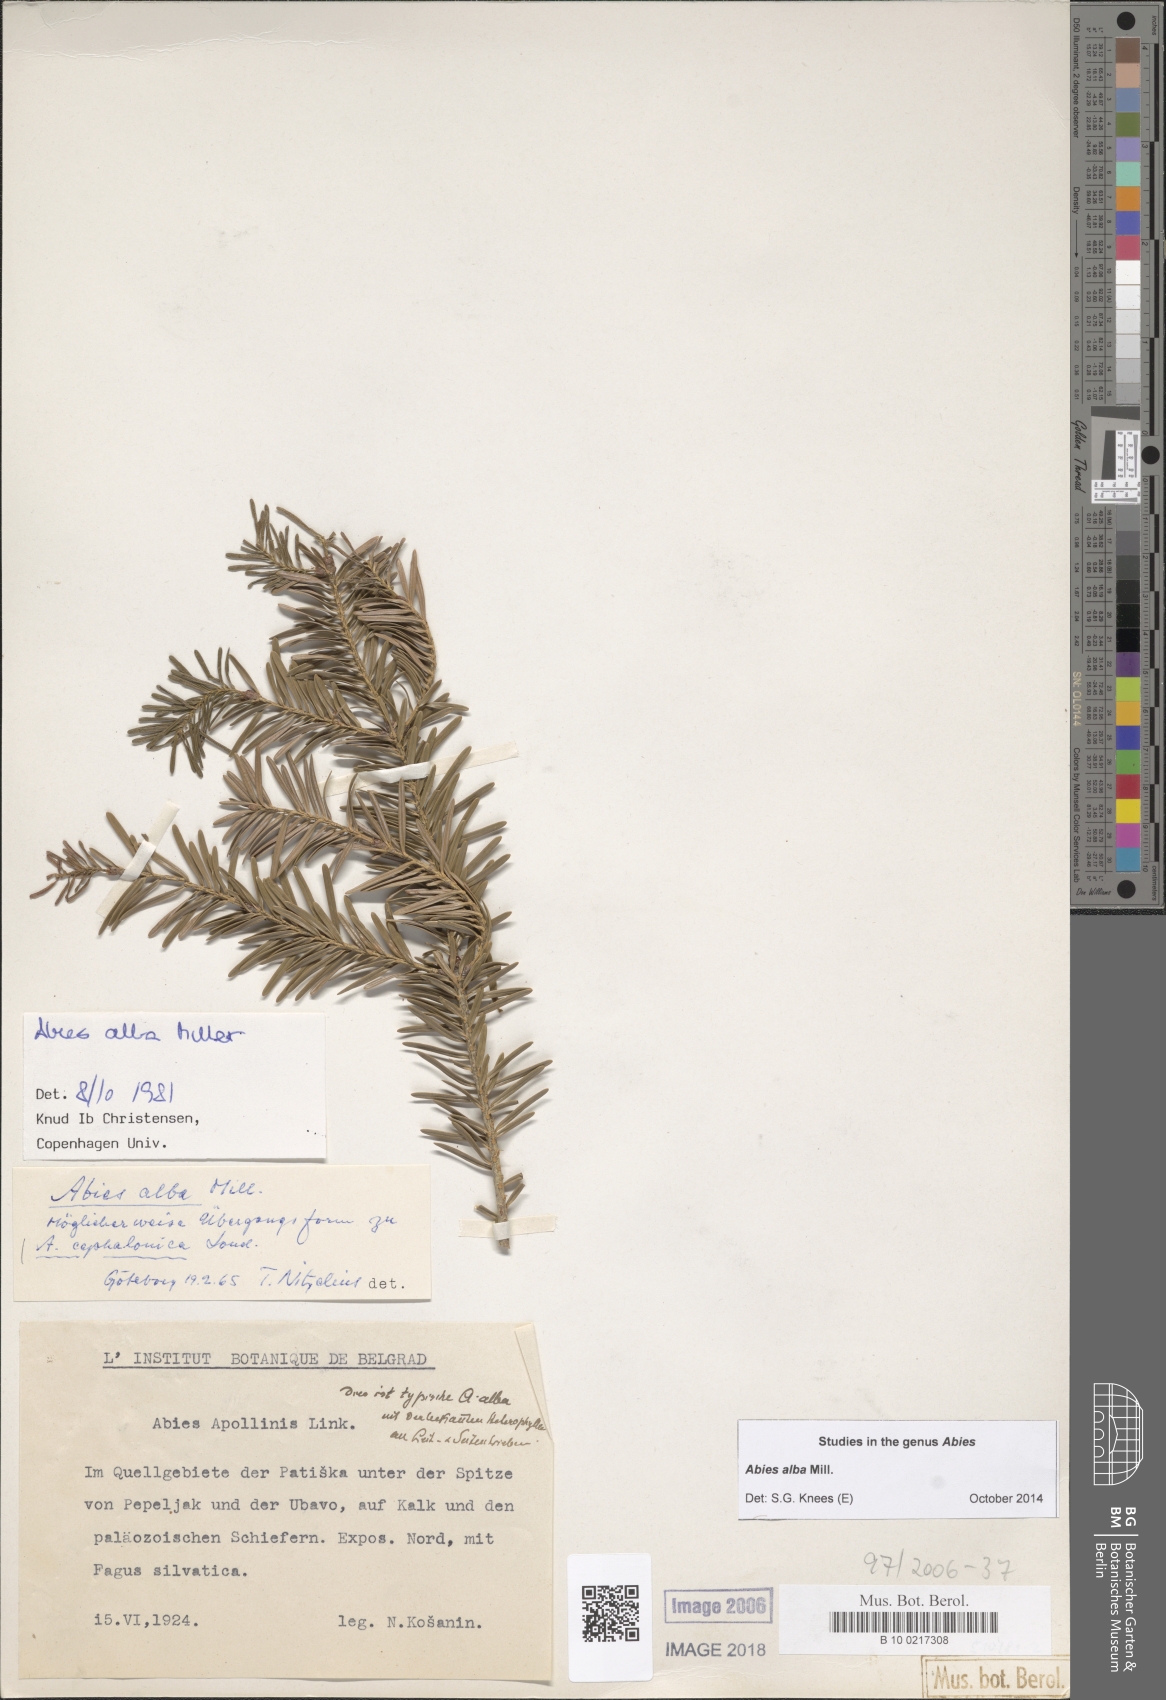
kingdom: Plantae
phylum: Tracheophyta
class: Pinopsida
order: Pinales
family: Pinaceae
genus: Abies
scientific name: Abies alba
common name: Silver fir
